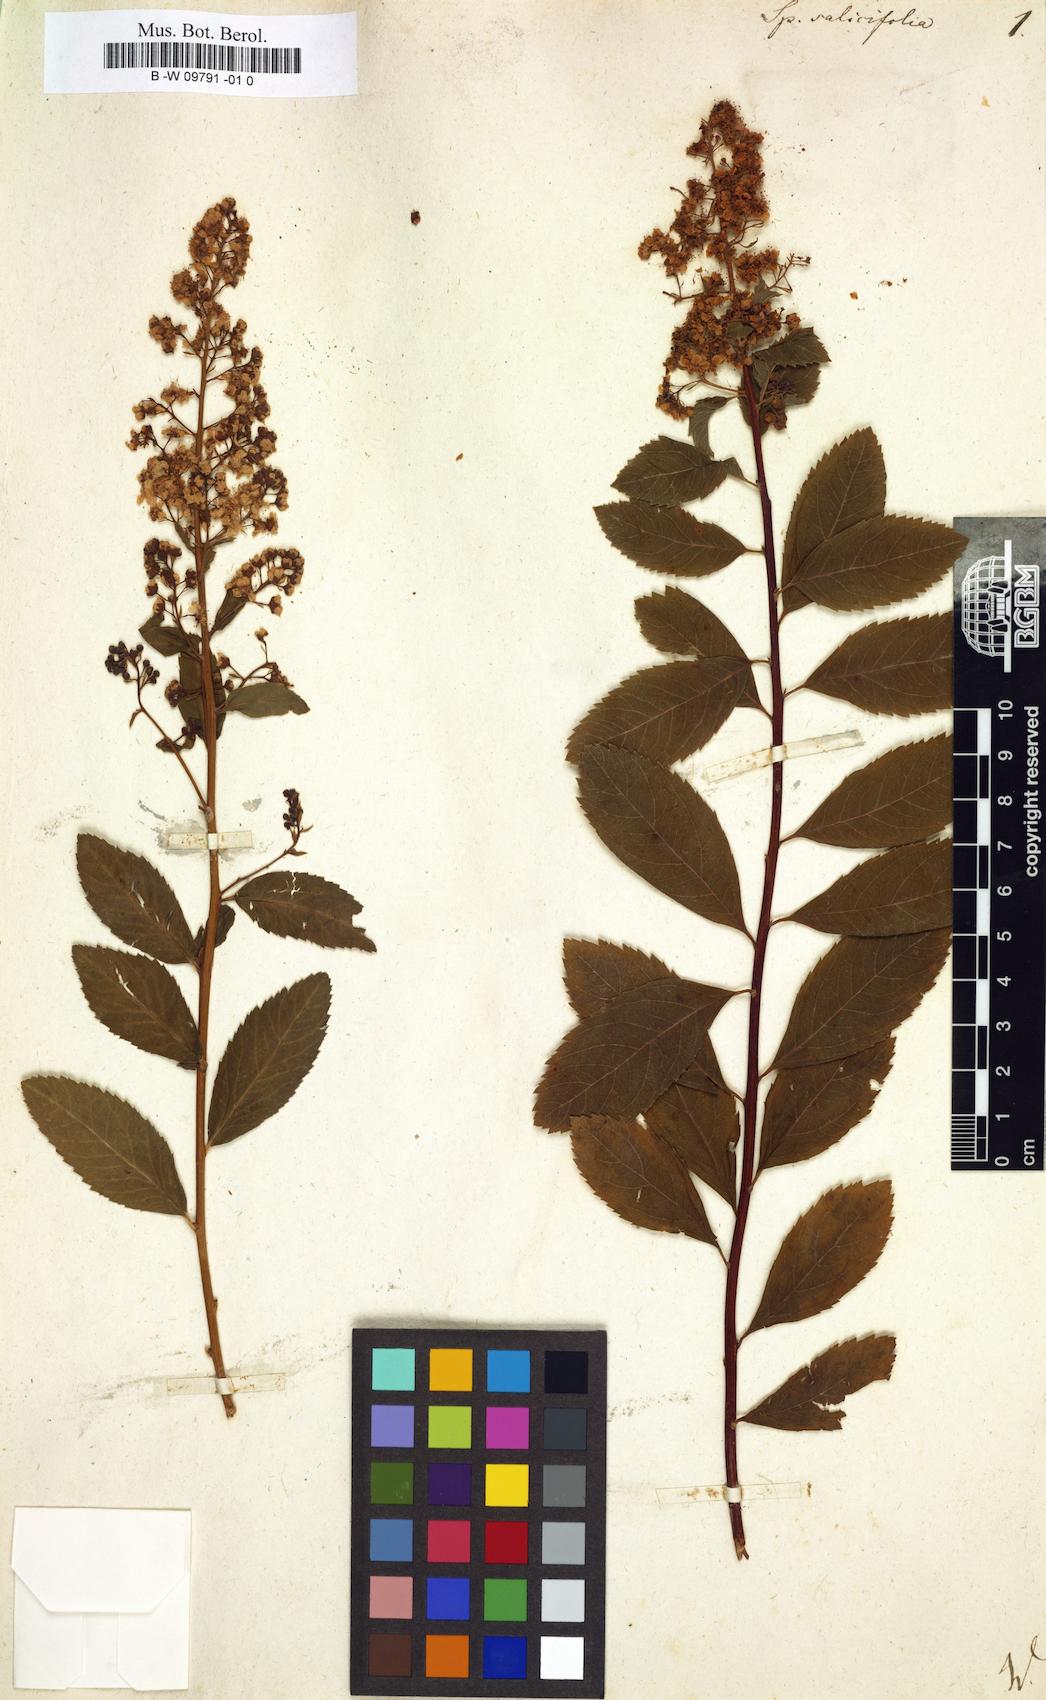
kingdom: Plantae
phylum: Tracheophyta
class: Magnoliopsida
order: Rosales
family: Rosaceae
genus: Spiraea
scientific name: Spiraea salicifolia
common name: Bridewort
